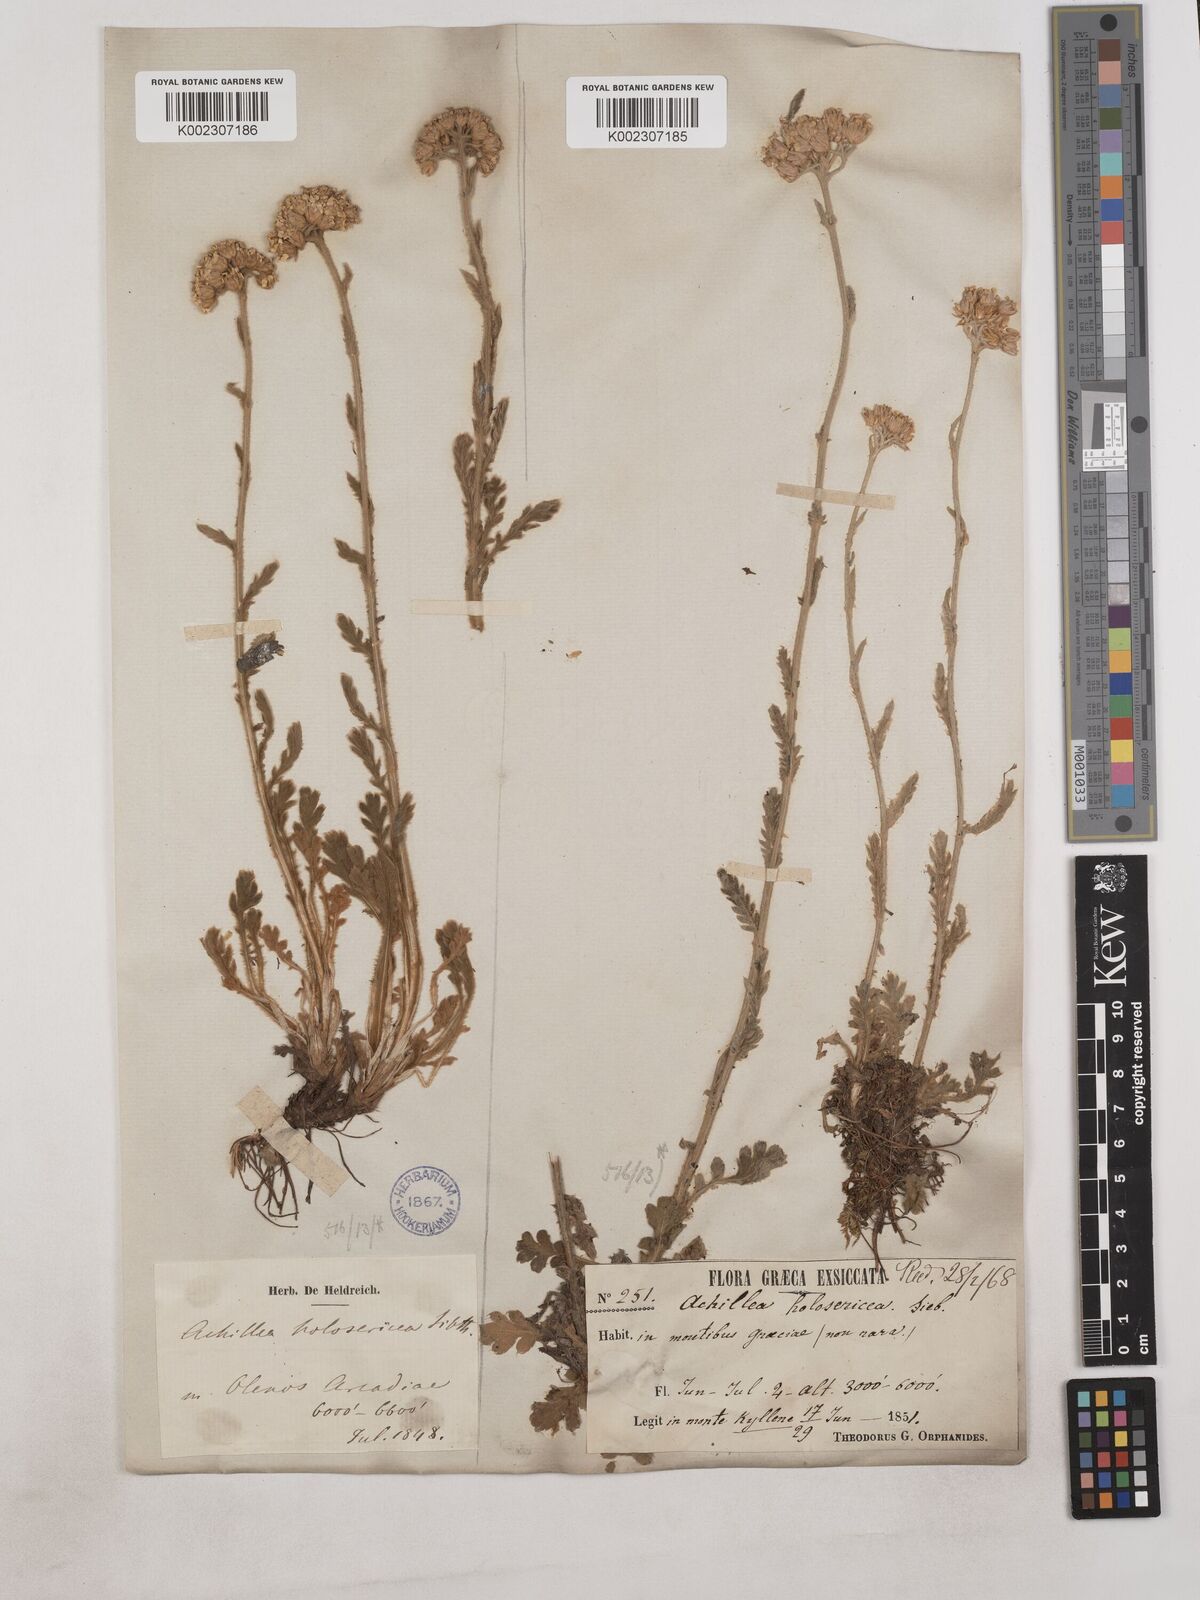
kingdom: Plantae
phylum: Tracheophyta
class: Magnoliopsida
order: Asterales
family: Asteraceae
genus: Achillea
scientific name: Achillea holosericea
